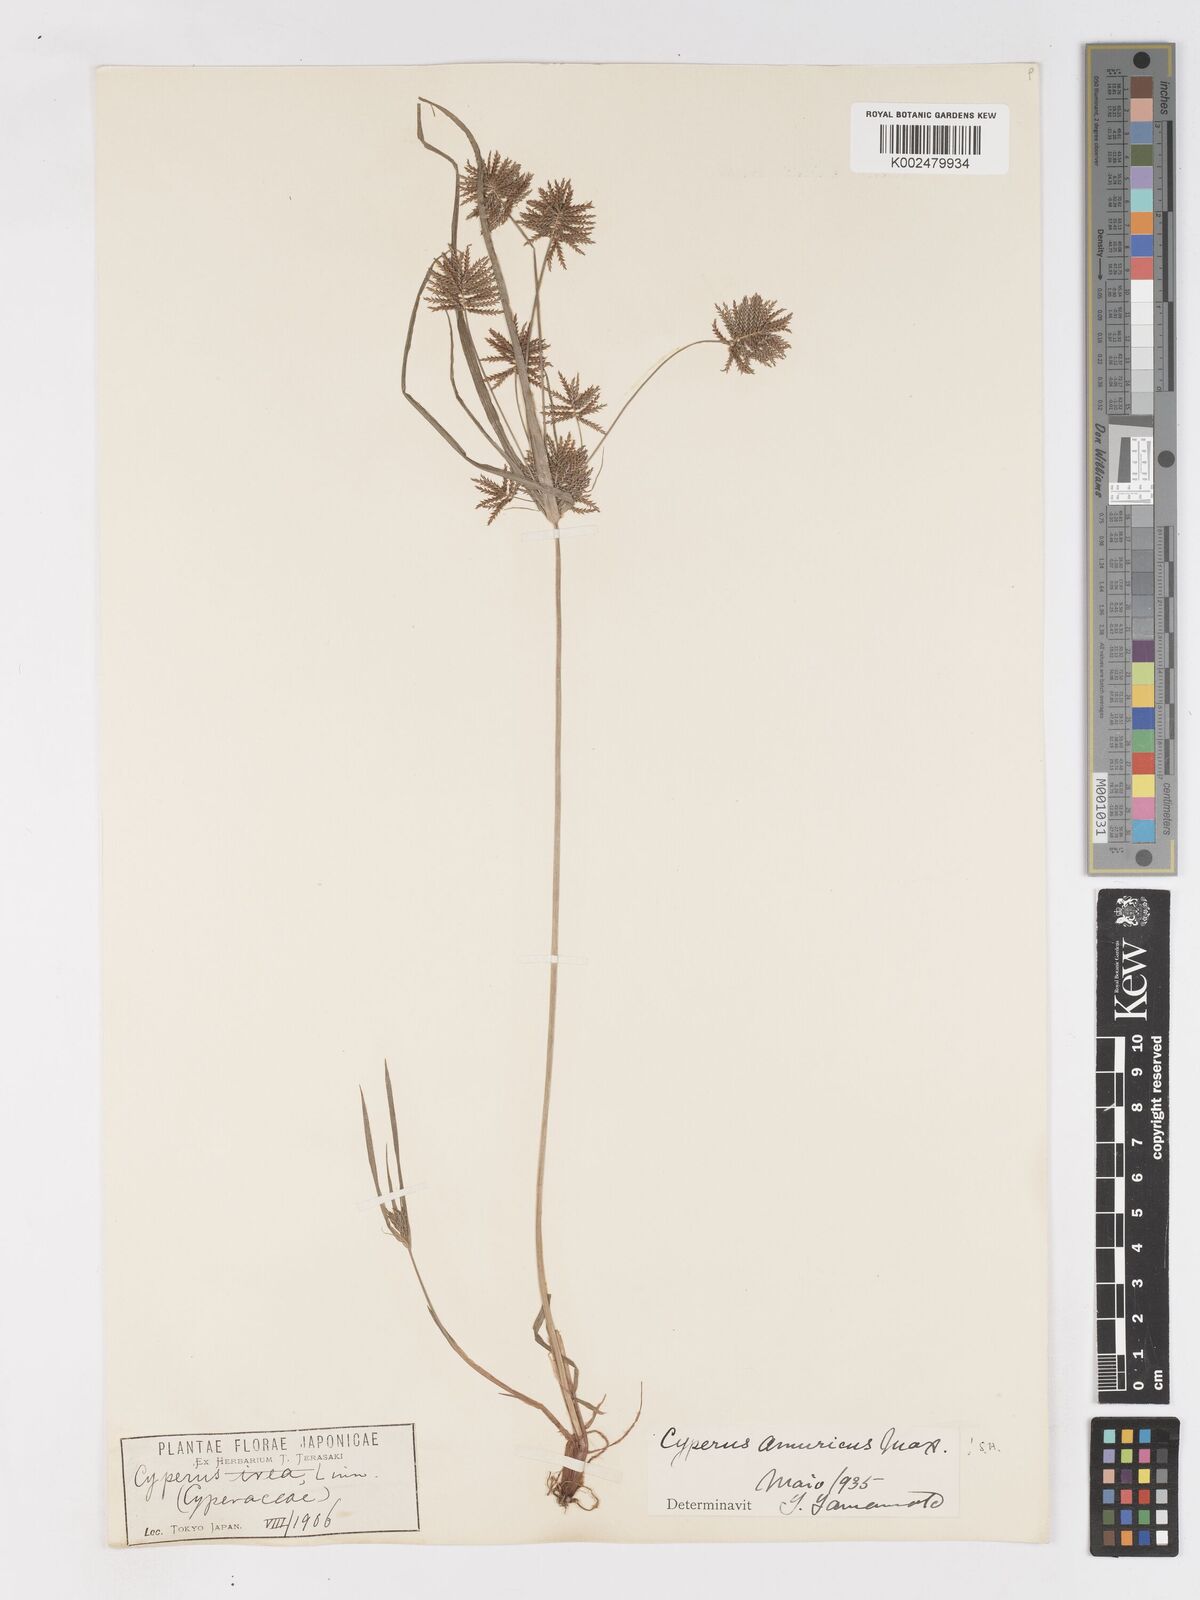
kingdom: Plantae
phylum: Tracheophyta
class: Liliopsida
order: Poales
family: Cyperaceae
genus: Cyperus
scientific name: Cyperus amuricus
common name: Asian flatsedge
